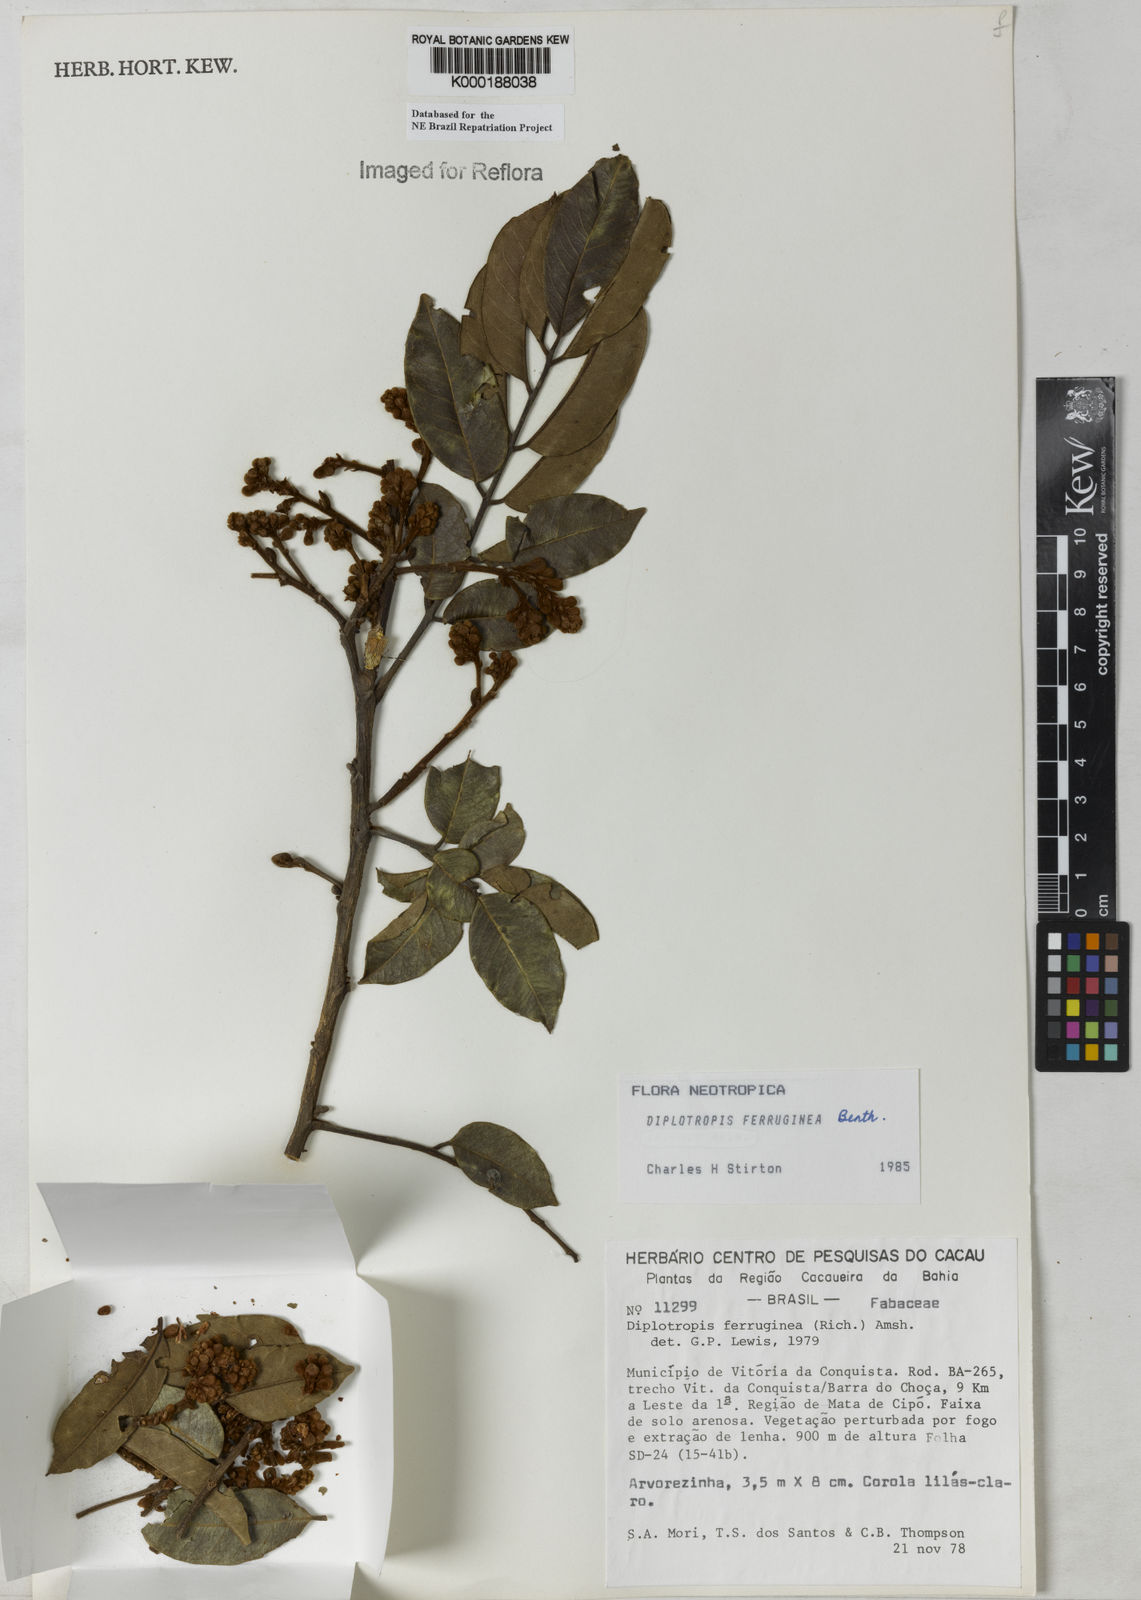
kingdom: Plantae
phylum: Tracheophyta
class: Magnoliopsida
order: Fabales
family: Fabaceae
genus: Diplotropis
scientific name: Diplotropis ferruginea
